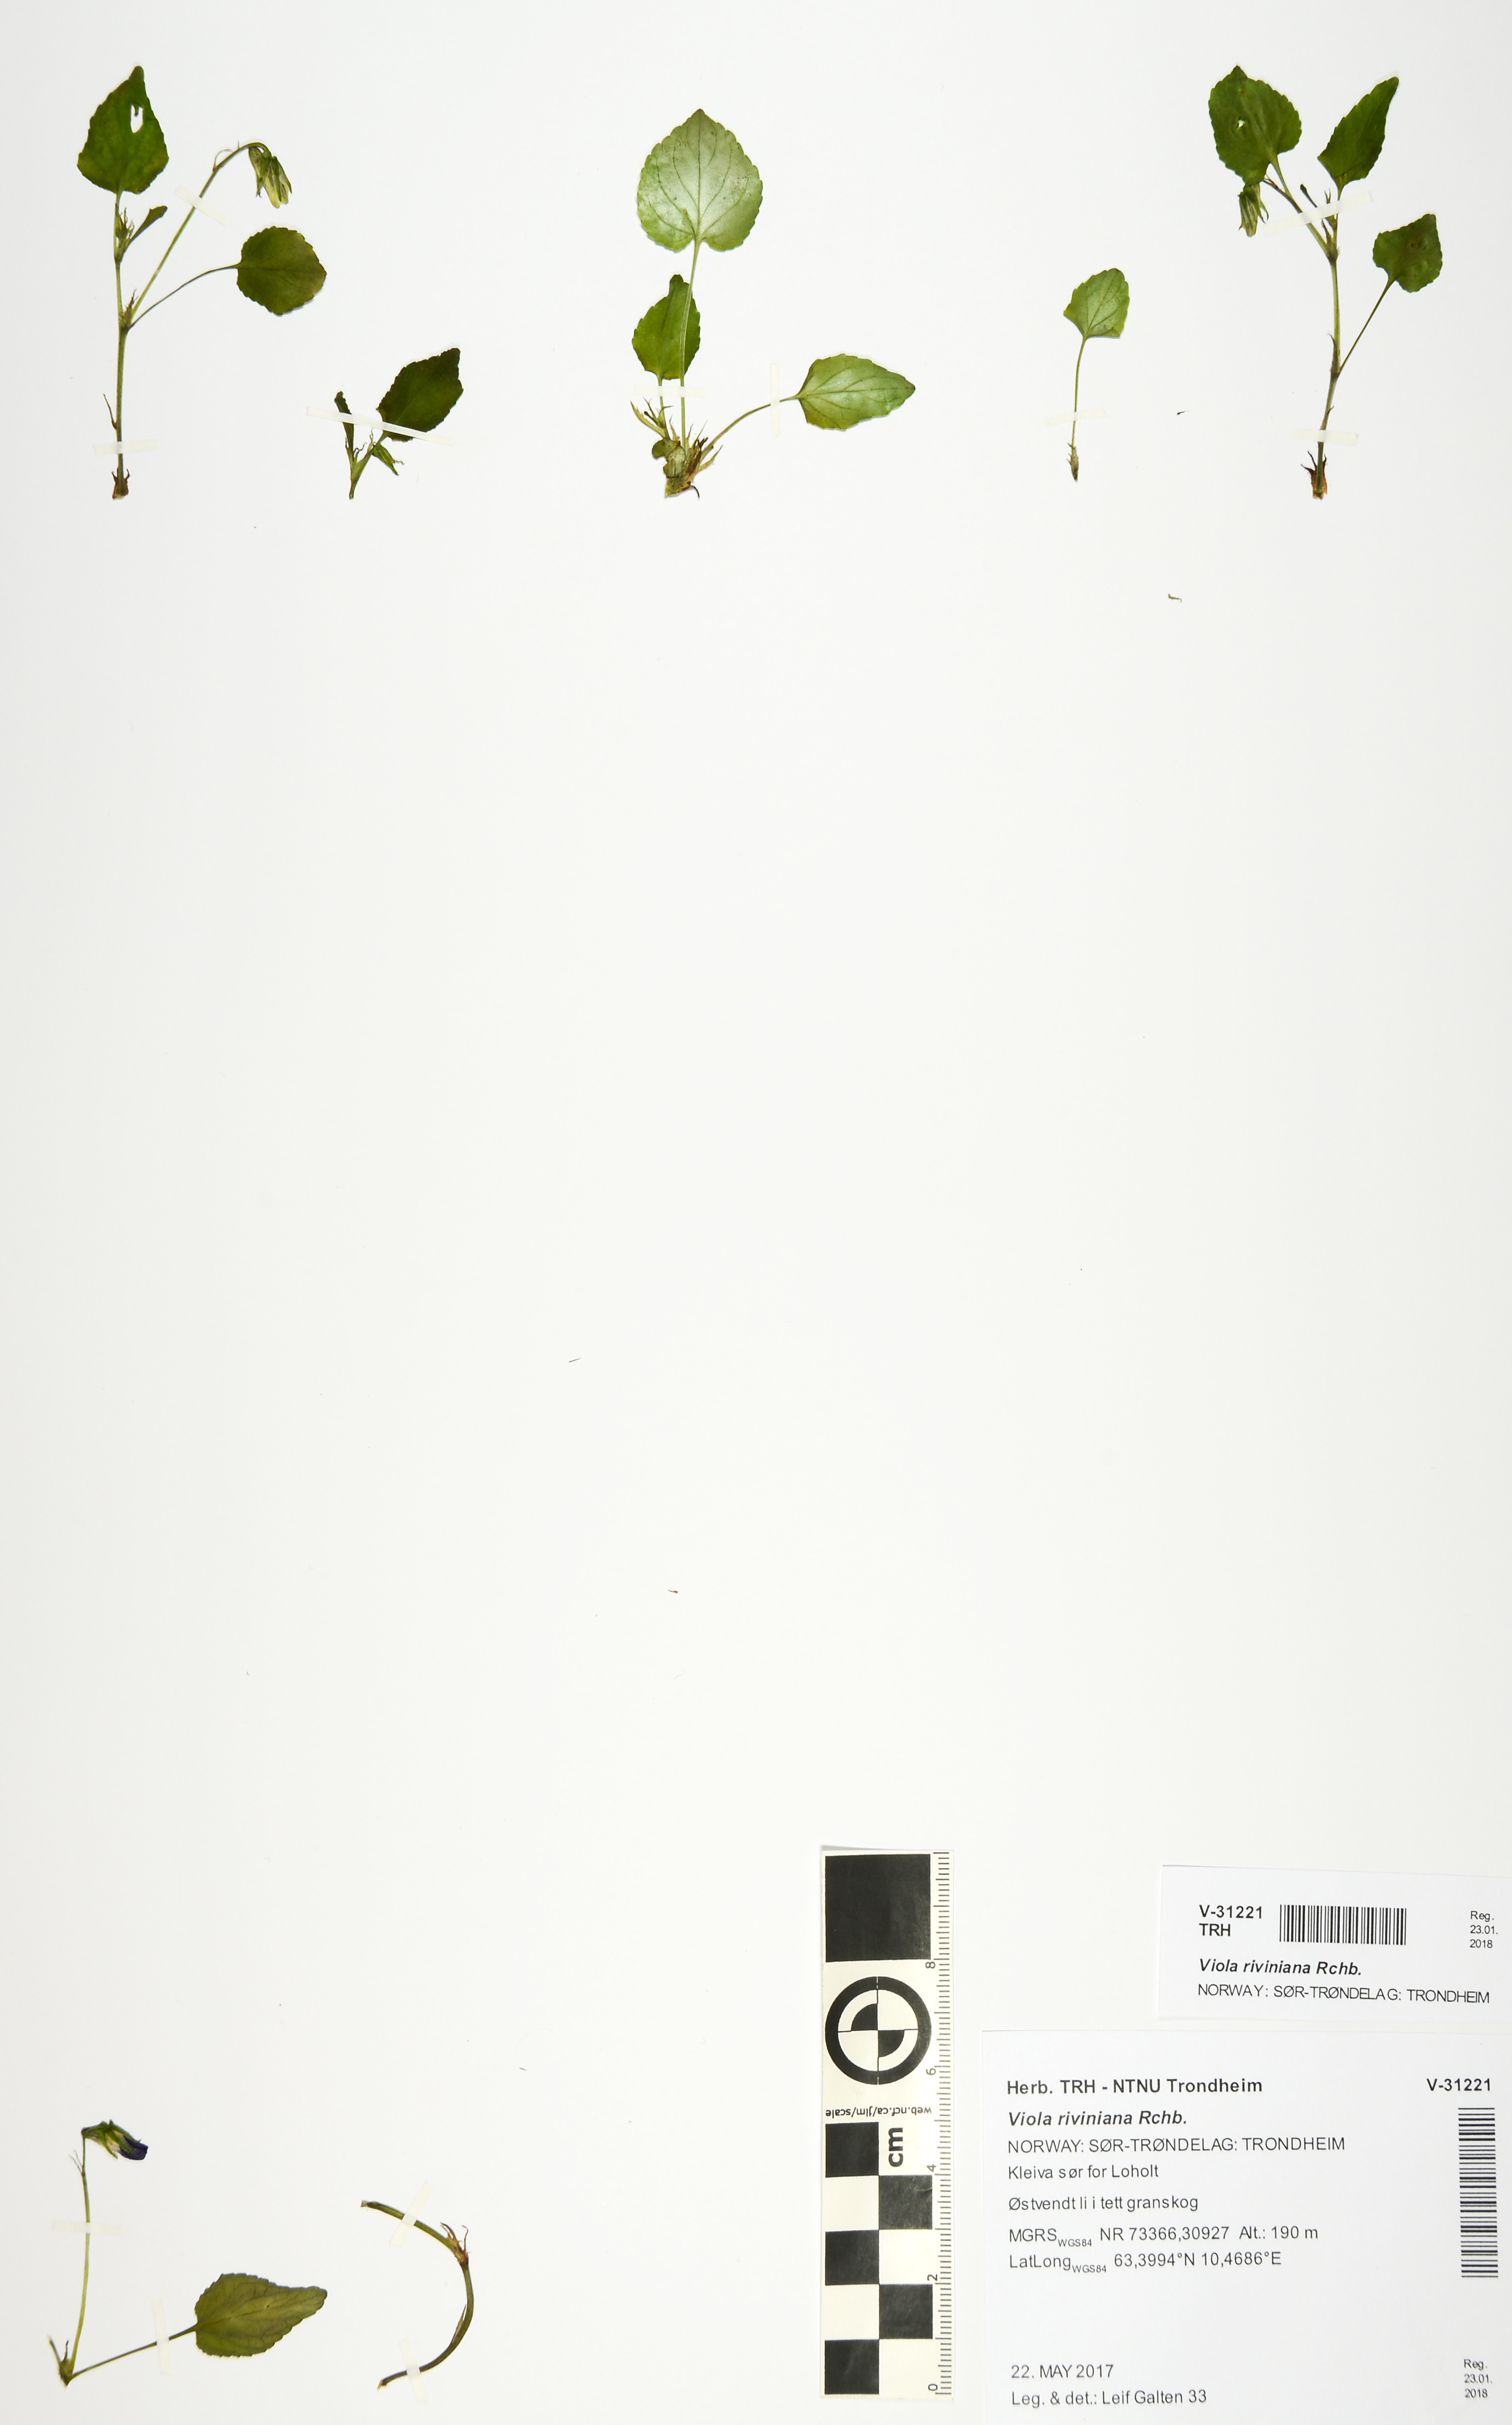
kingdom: Plantae
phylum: Tracheophyta
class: Magnoliopsida
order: Malpighiales
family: Violaceae
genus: Viola
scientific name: Viola riviniana
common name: Common dog-violet
